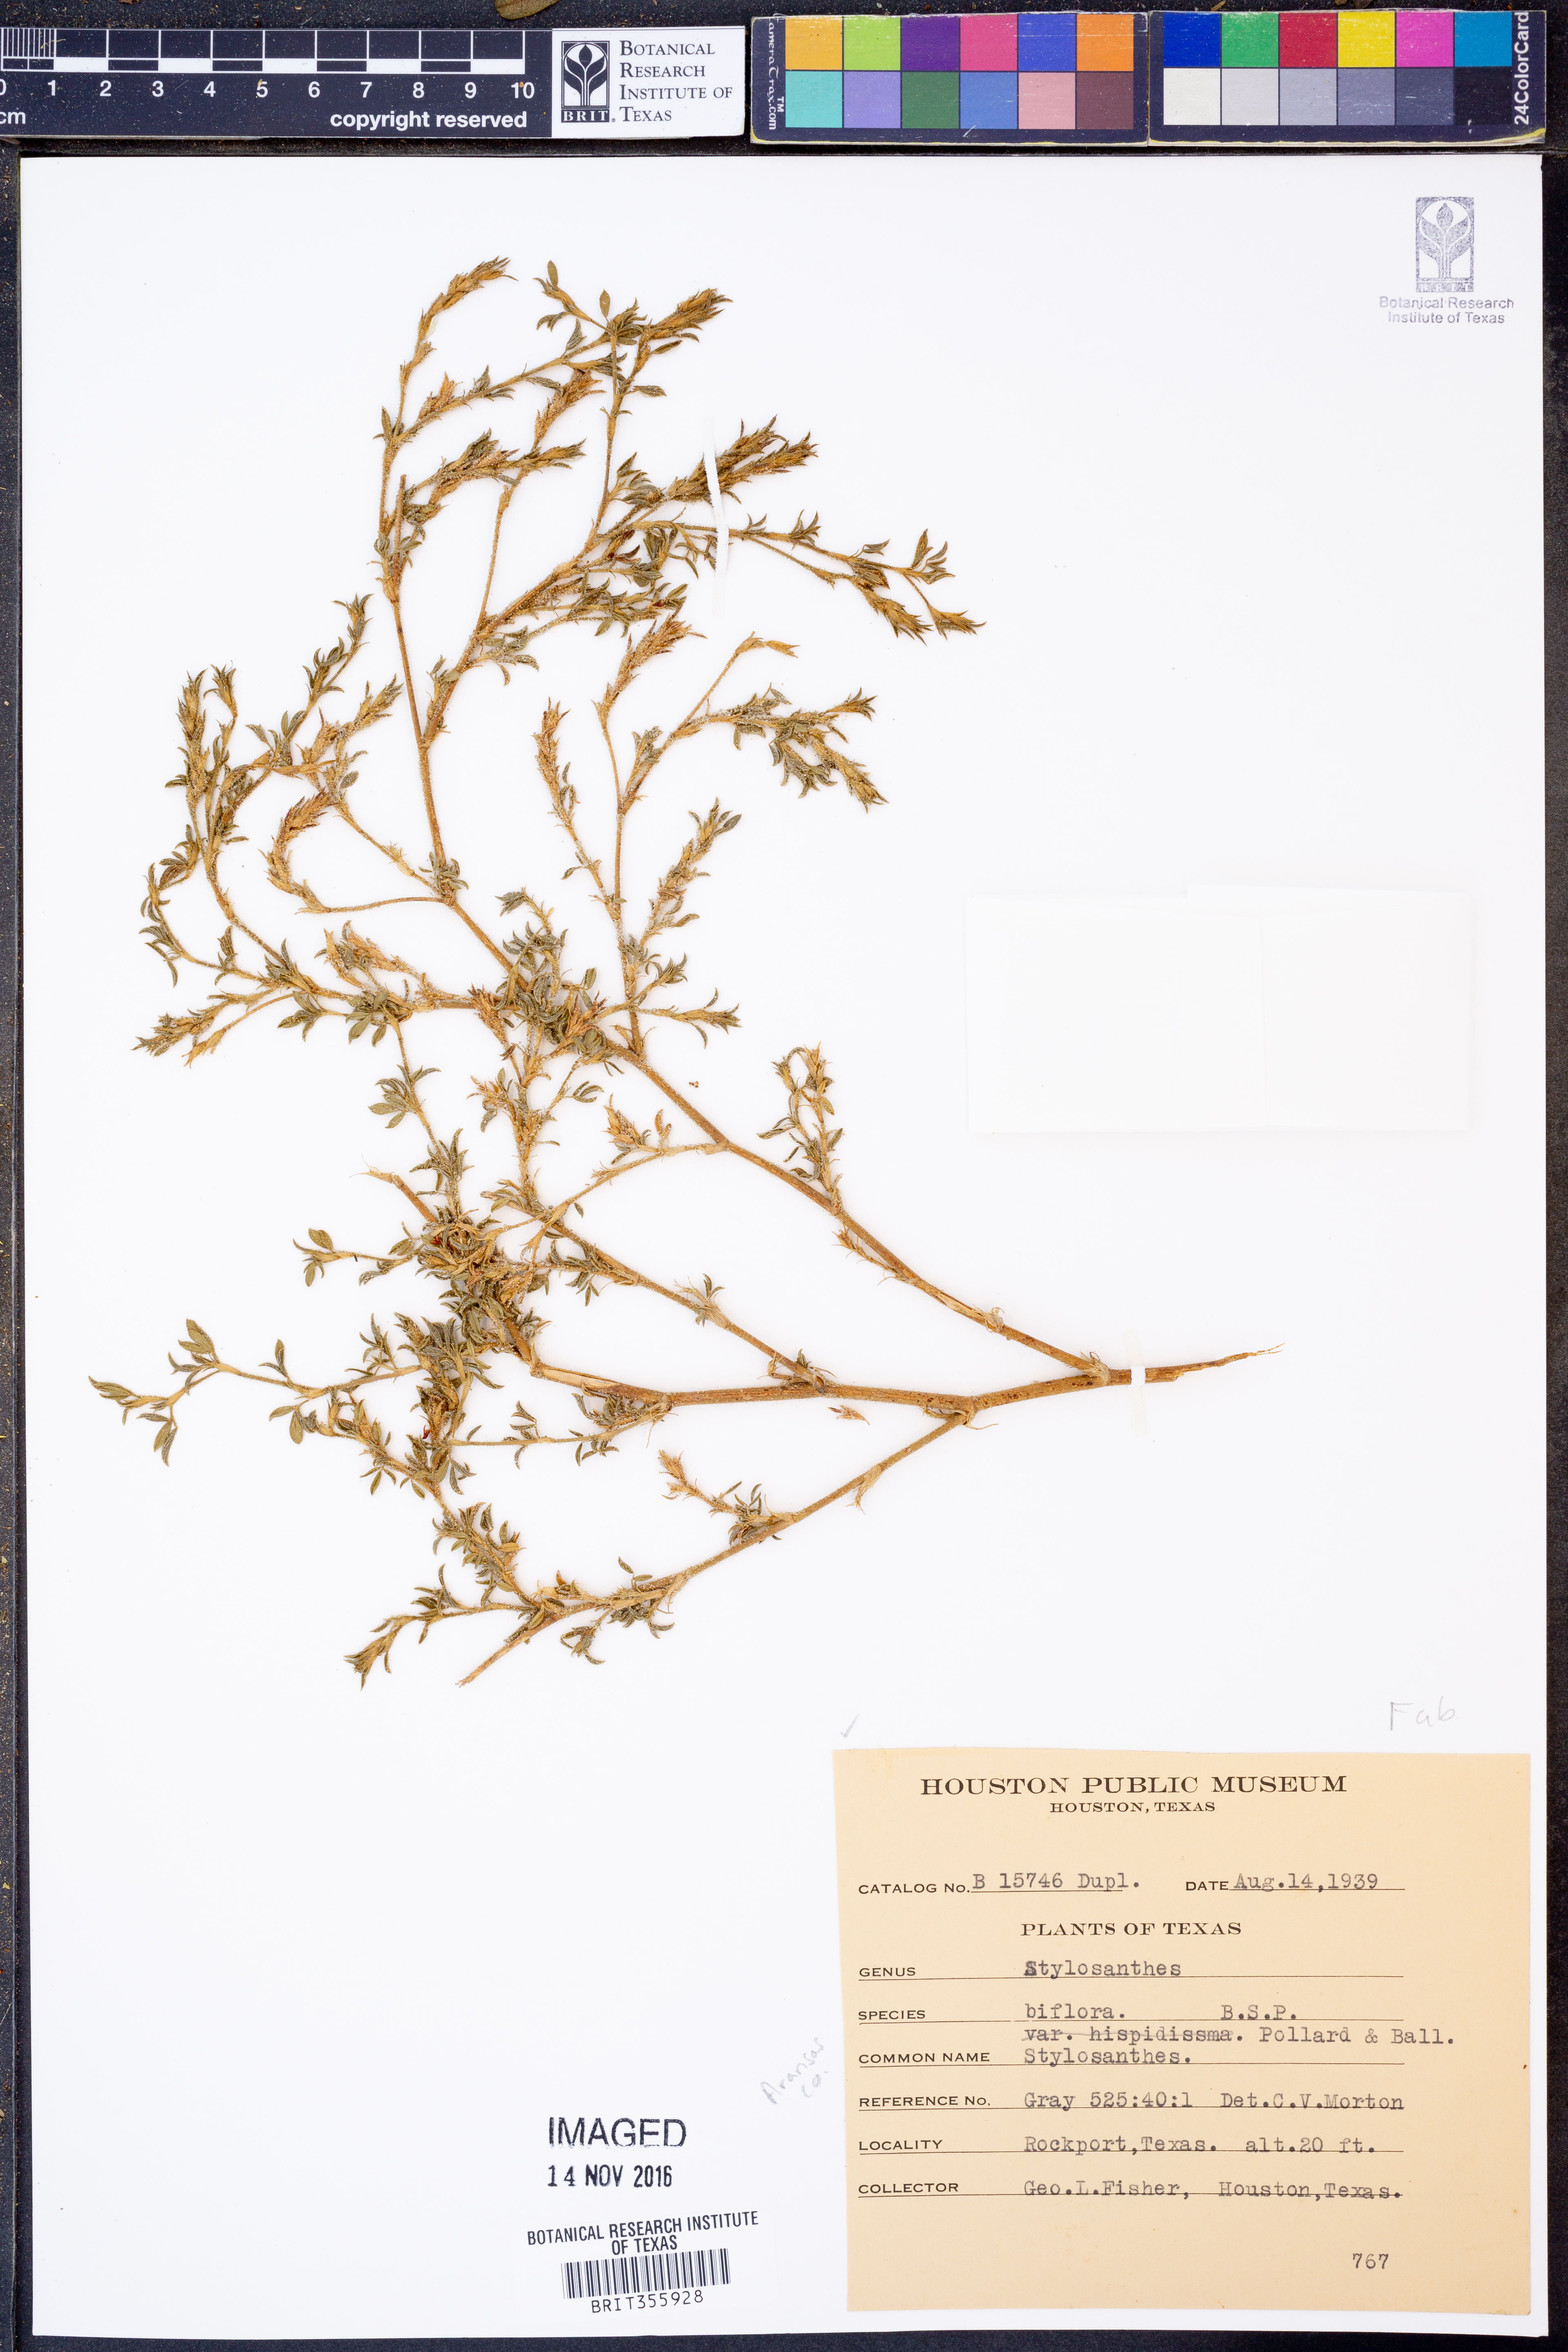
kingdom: Plantae
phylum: Tracheophyta
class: Magnoliopsida
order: Fabales
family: Fabaceae
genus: Stylosanthes
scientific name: Stylosanthes biflora
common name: Two-flower pencil-flower
